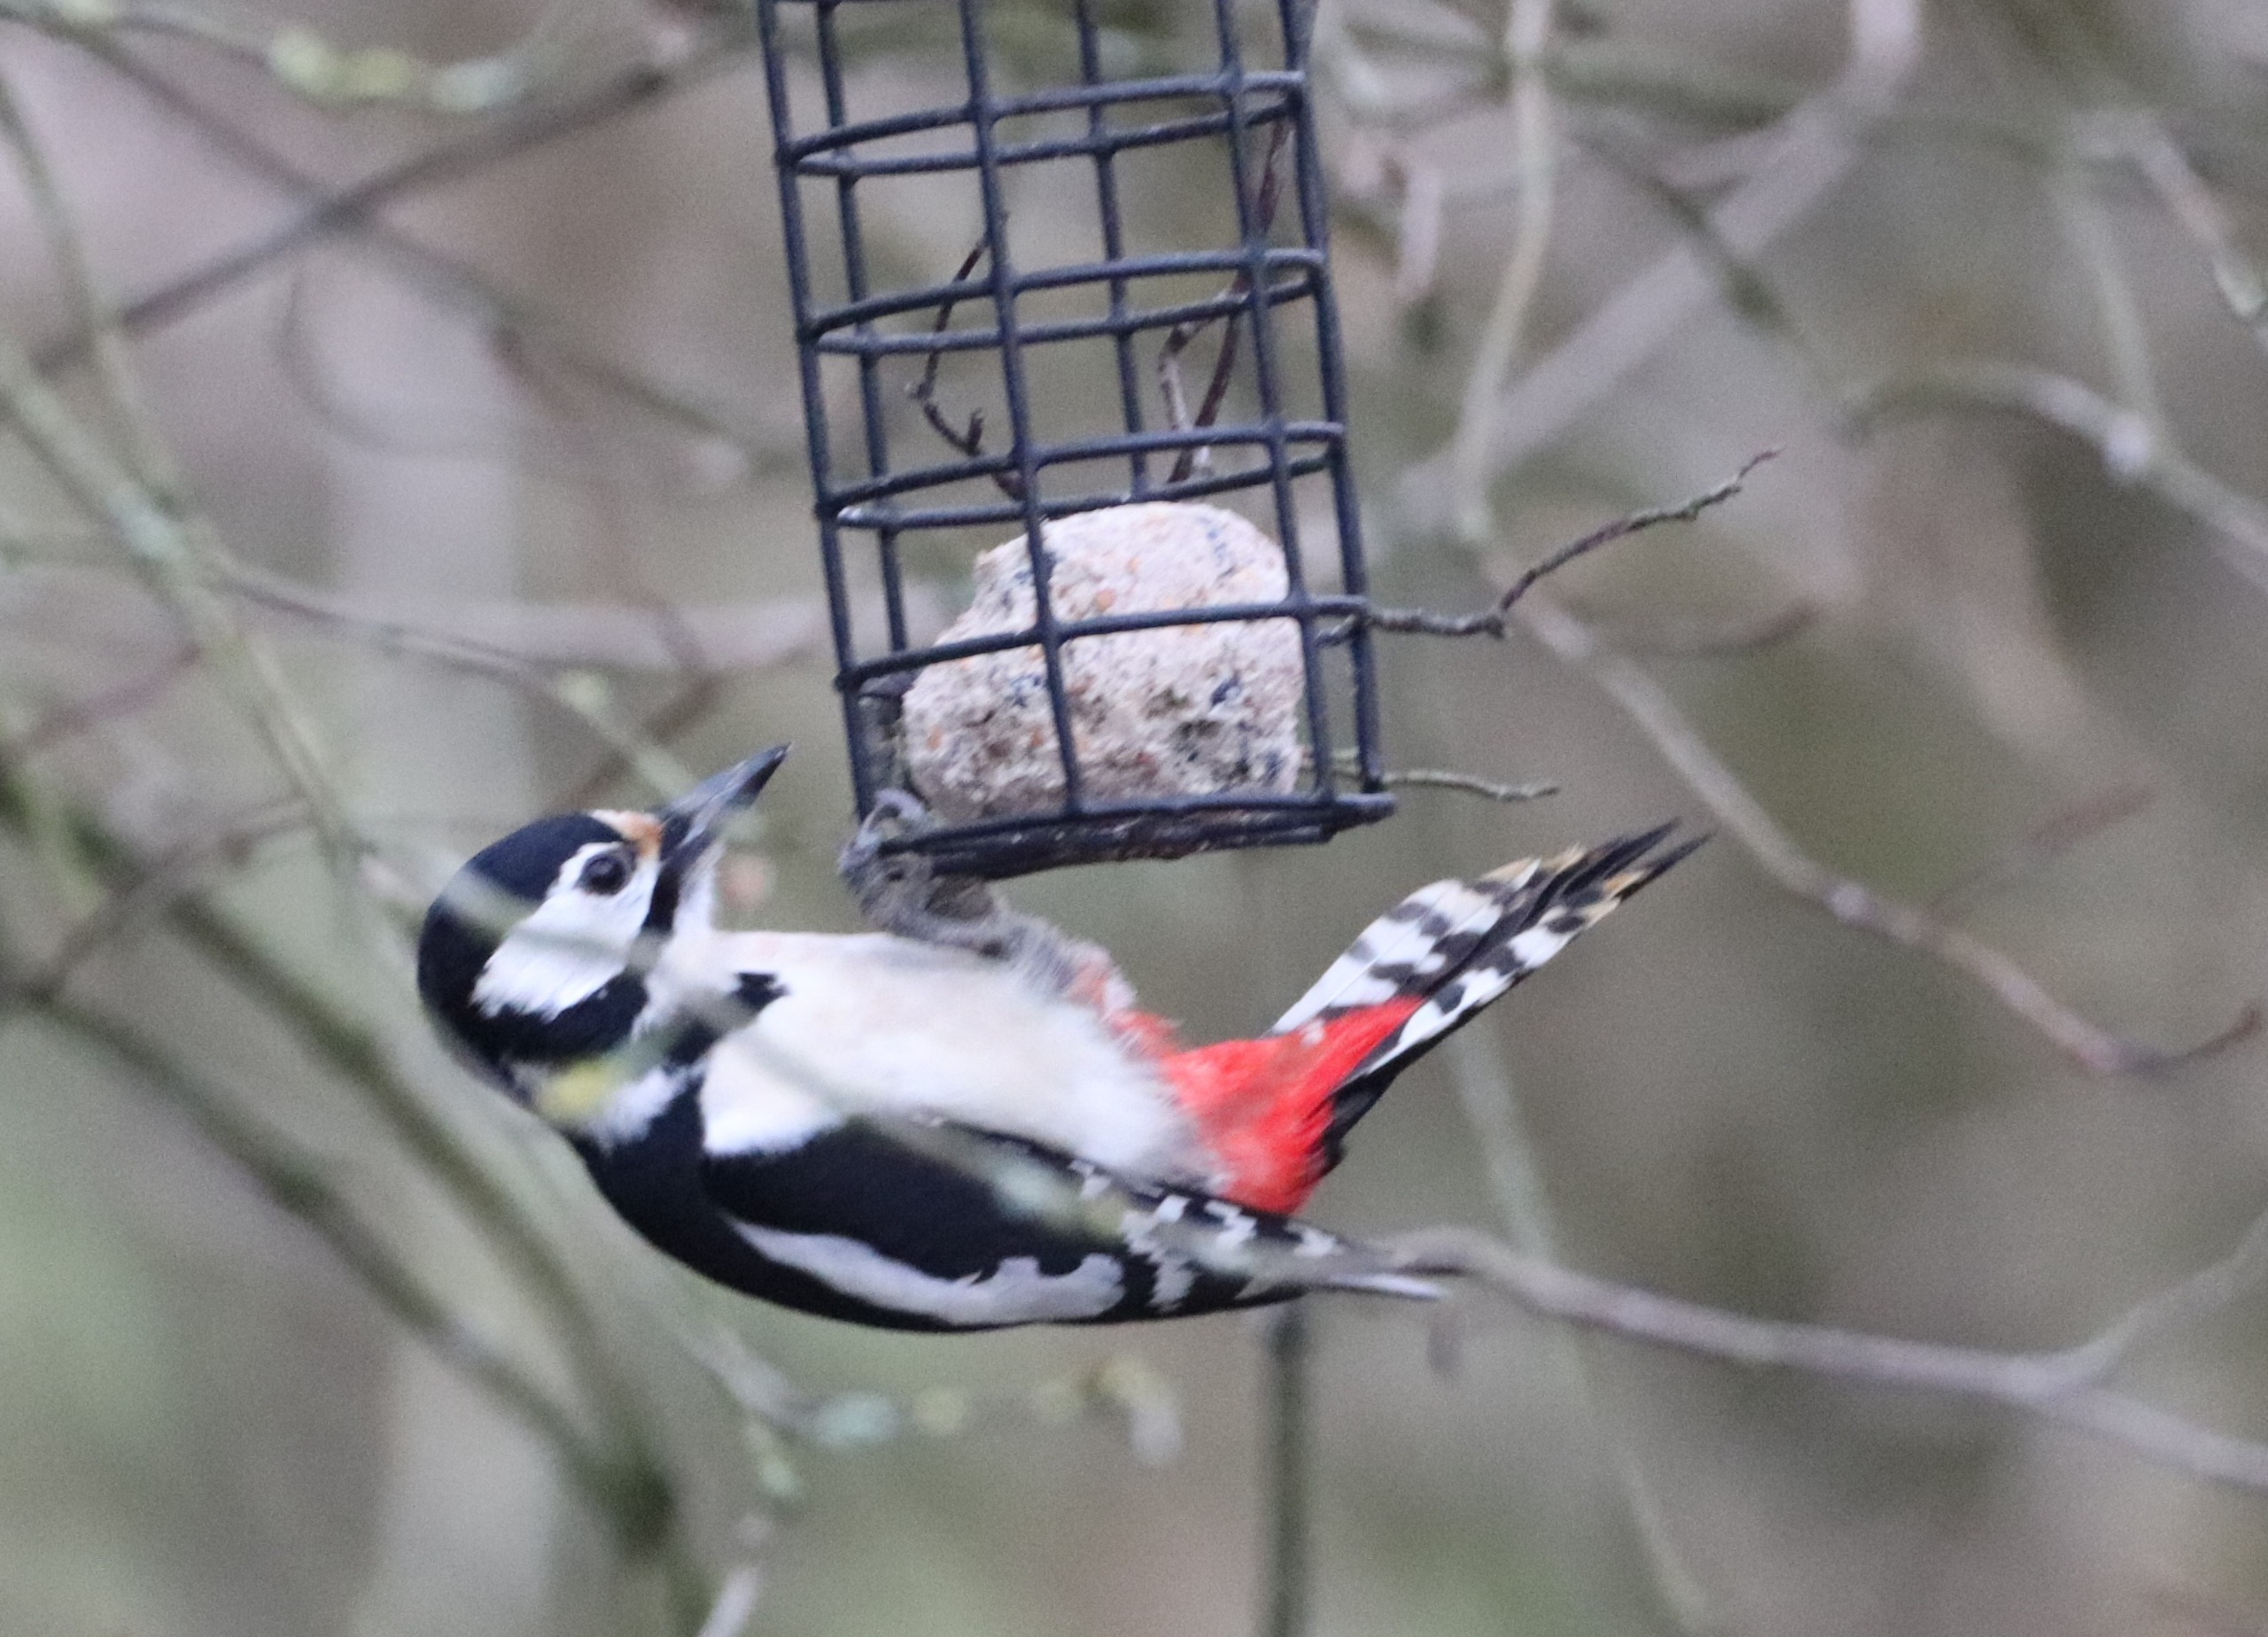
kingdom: Animalia
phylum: Chordata
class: Aves
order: Piciformes
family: Picidae
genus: Dendrocopos
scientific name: Dendrocopos major
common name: Stor flagspætte
